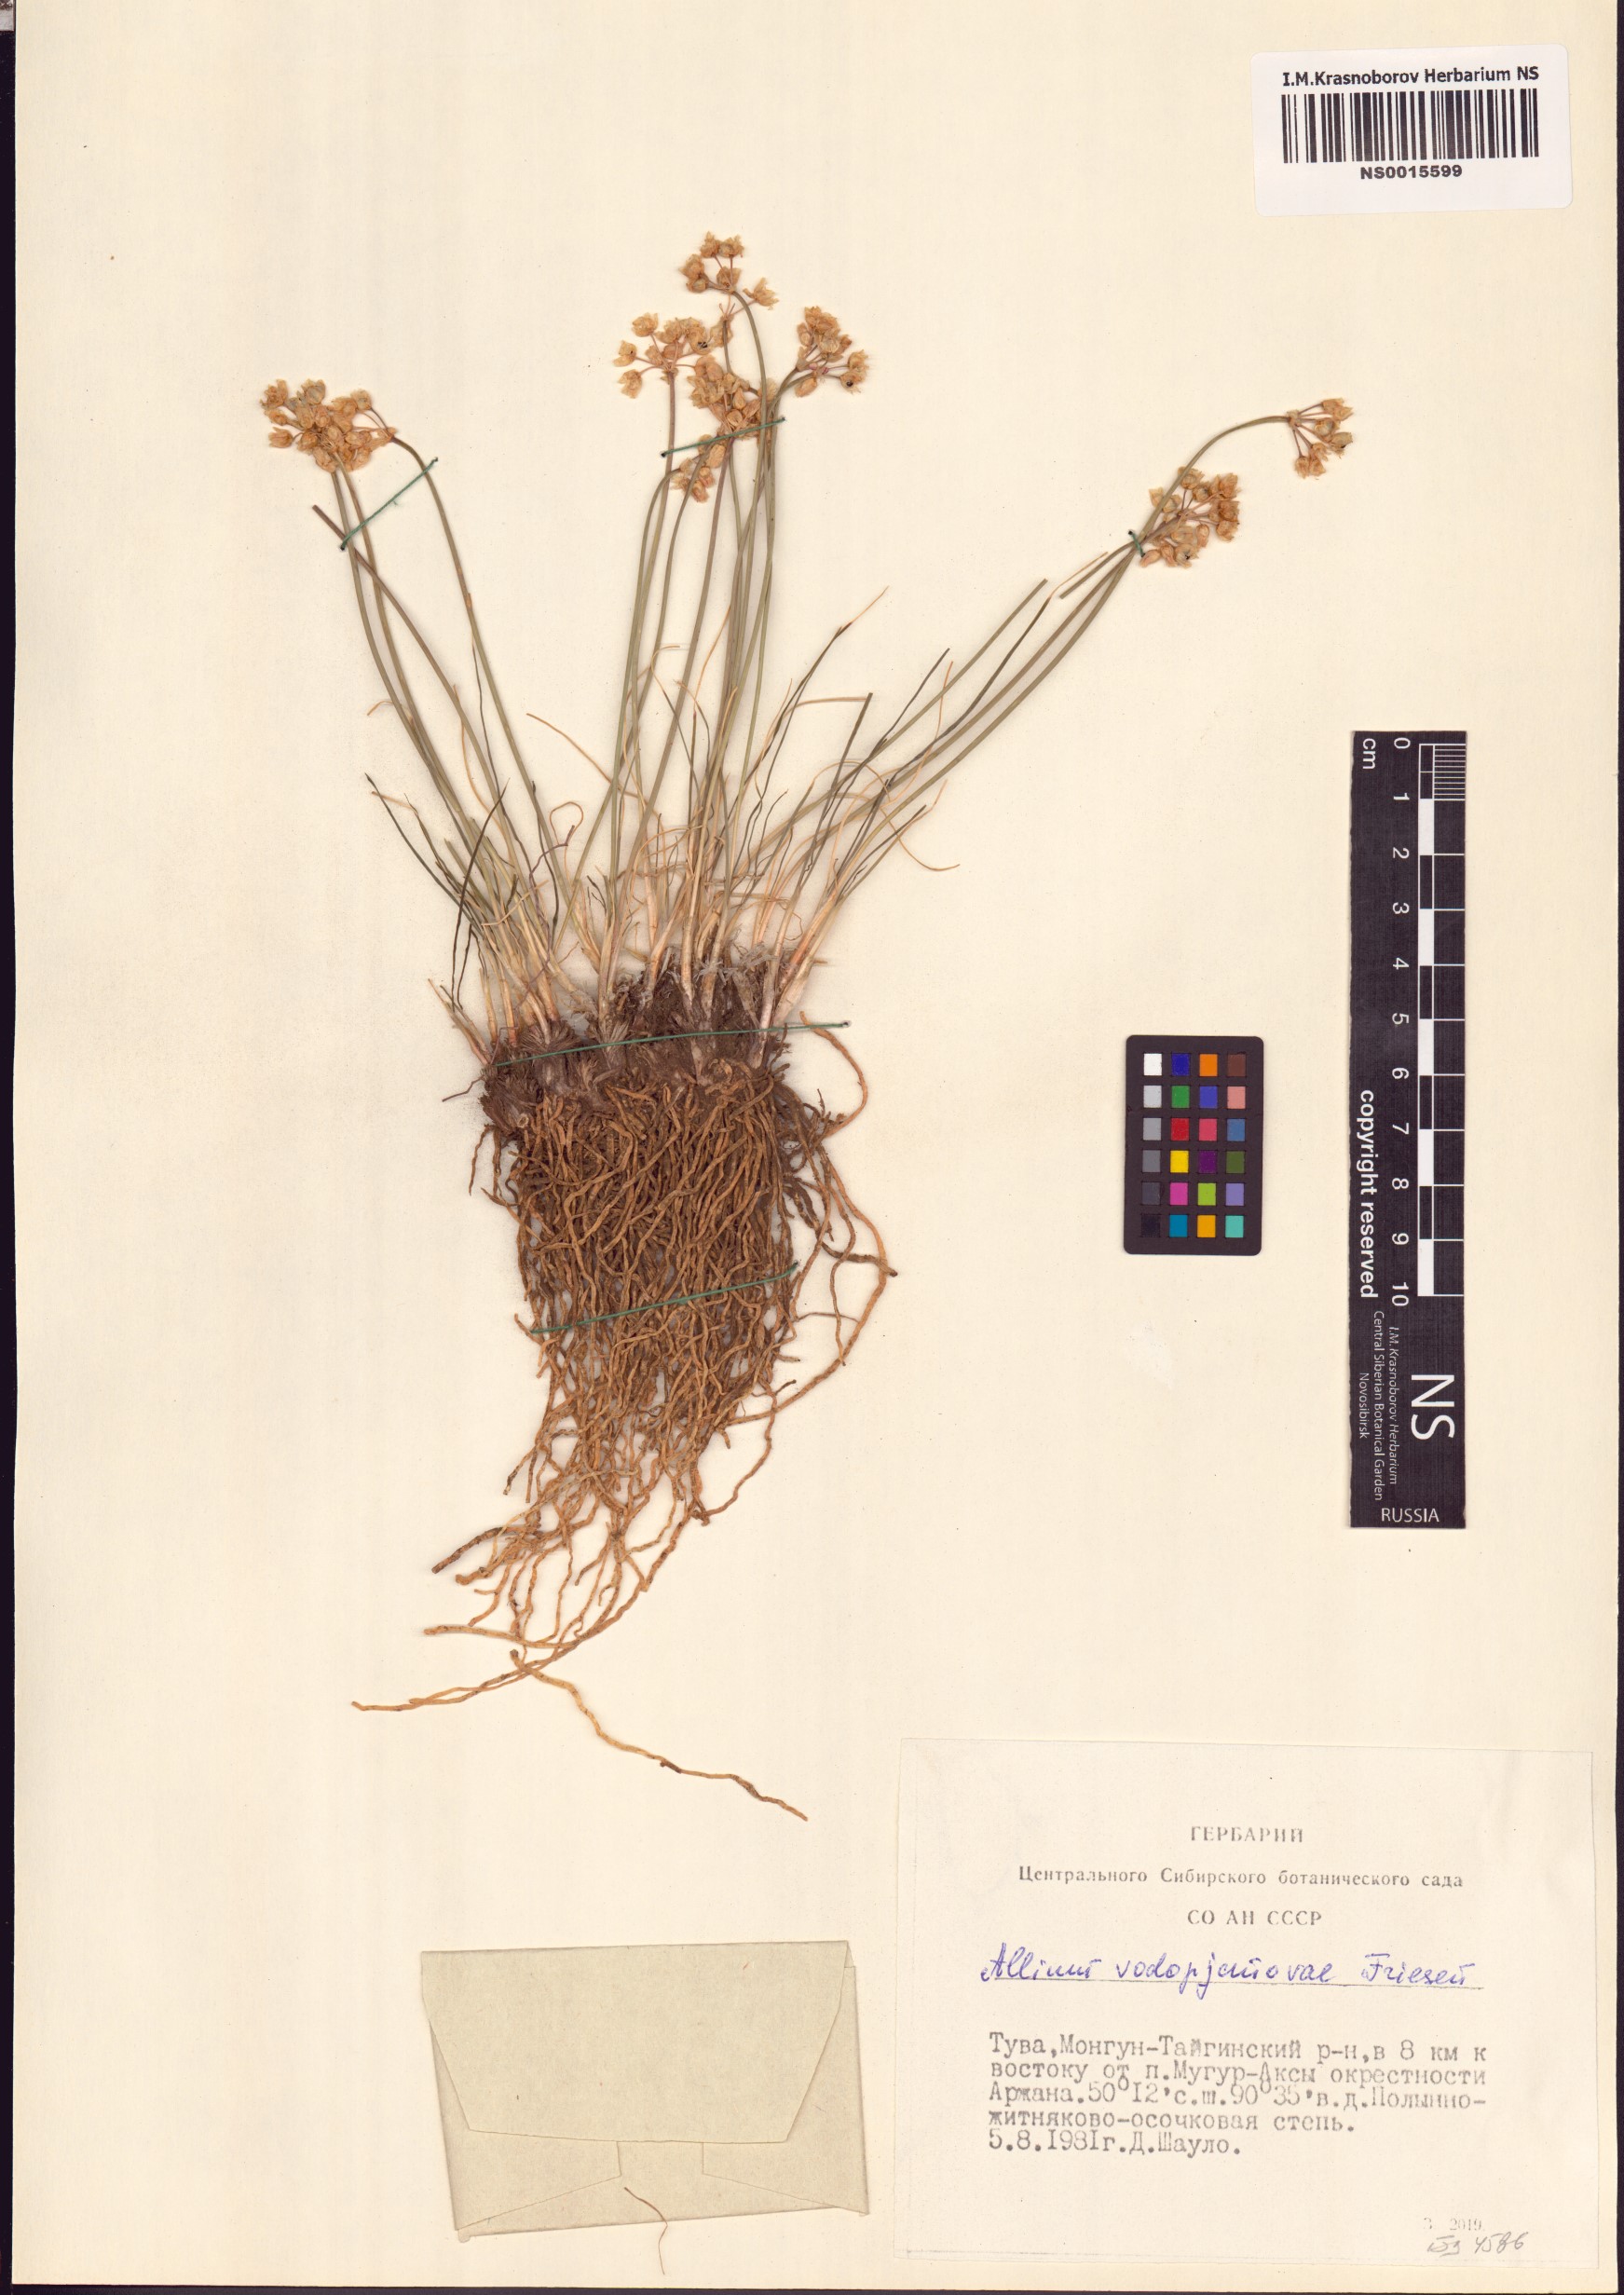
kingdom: Plantae
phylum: Tracheophyta
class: Liliopsida
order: Asparagales
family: Amaryllidaceae
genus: Allium
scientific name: Allium vodopjanovae
